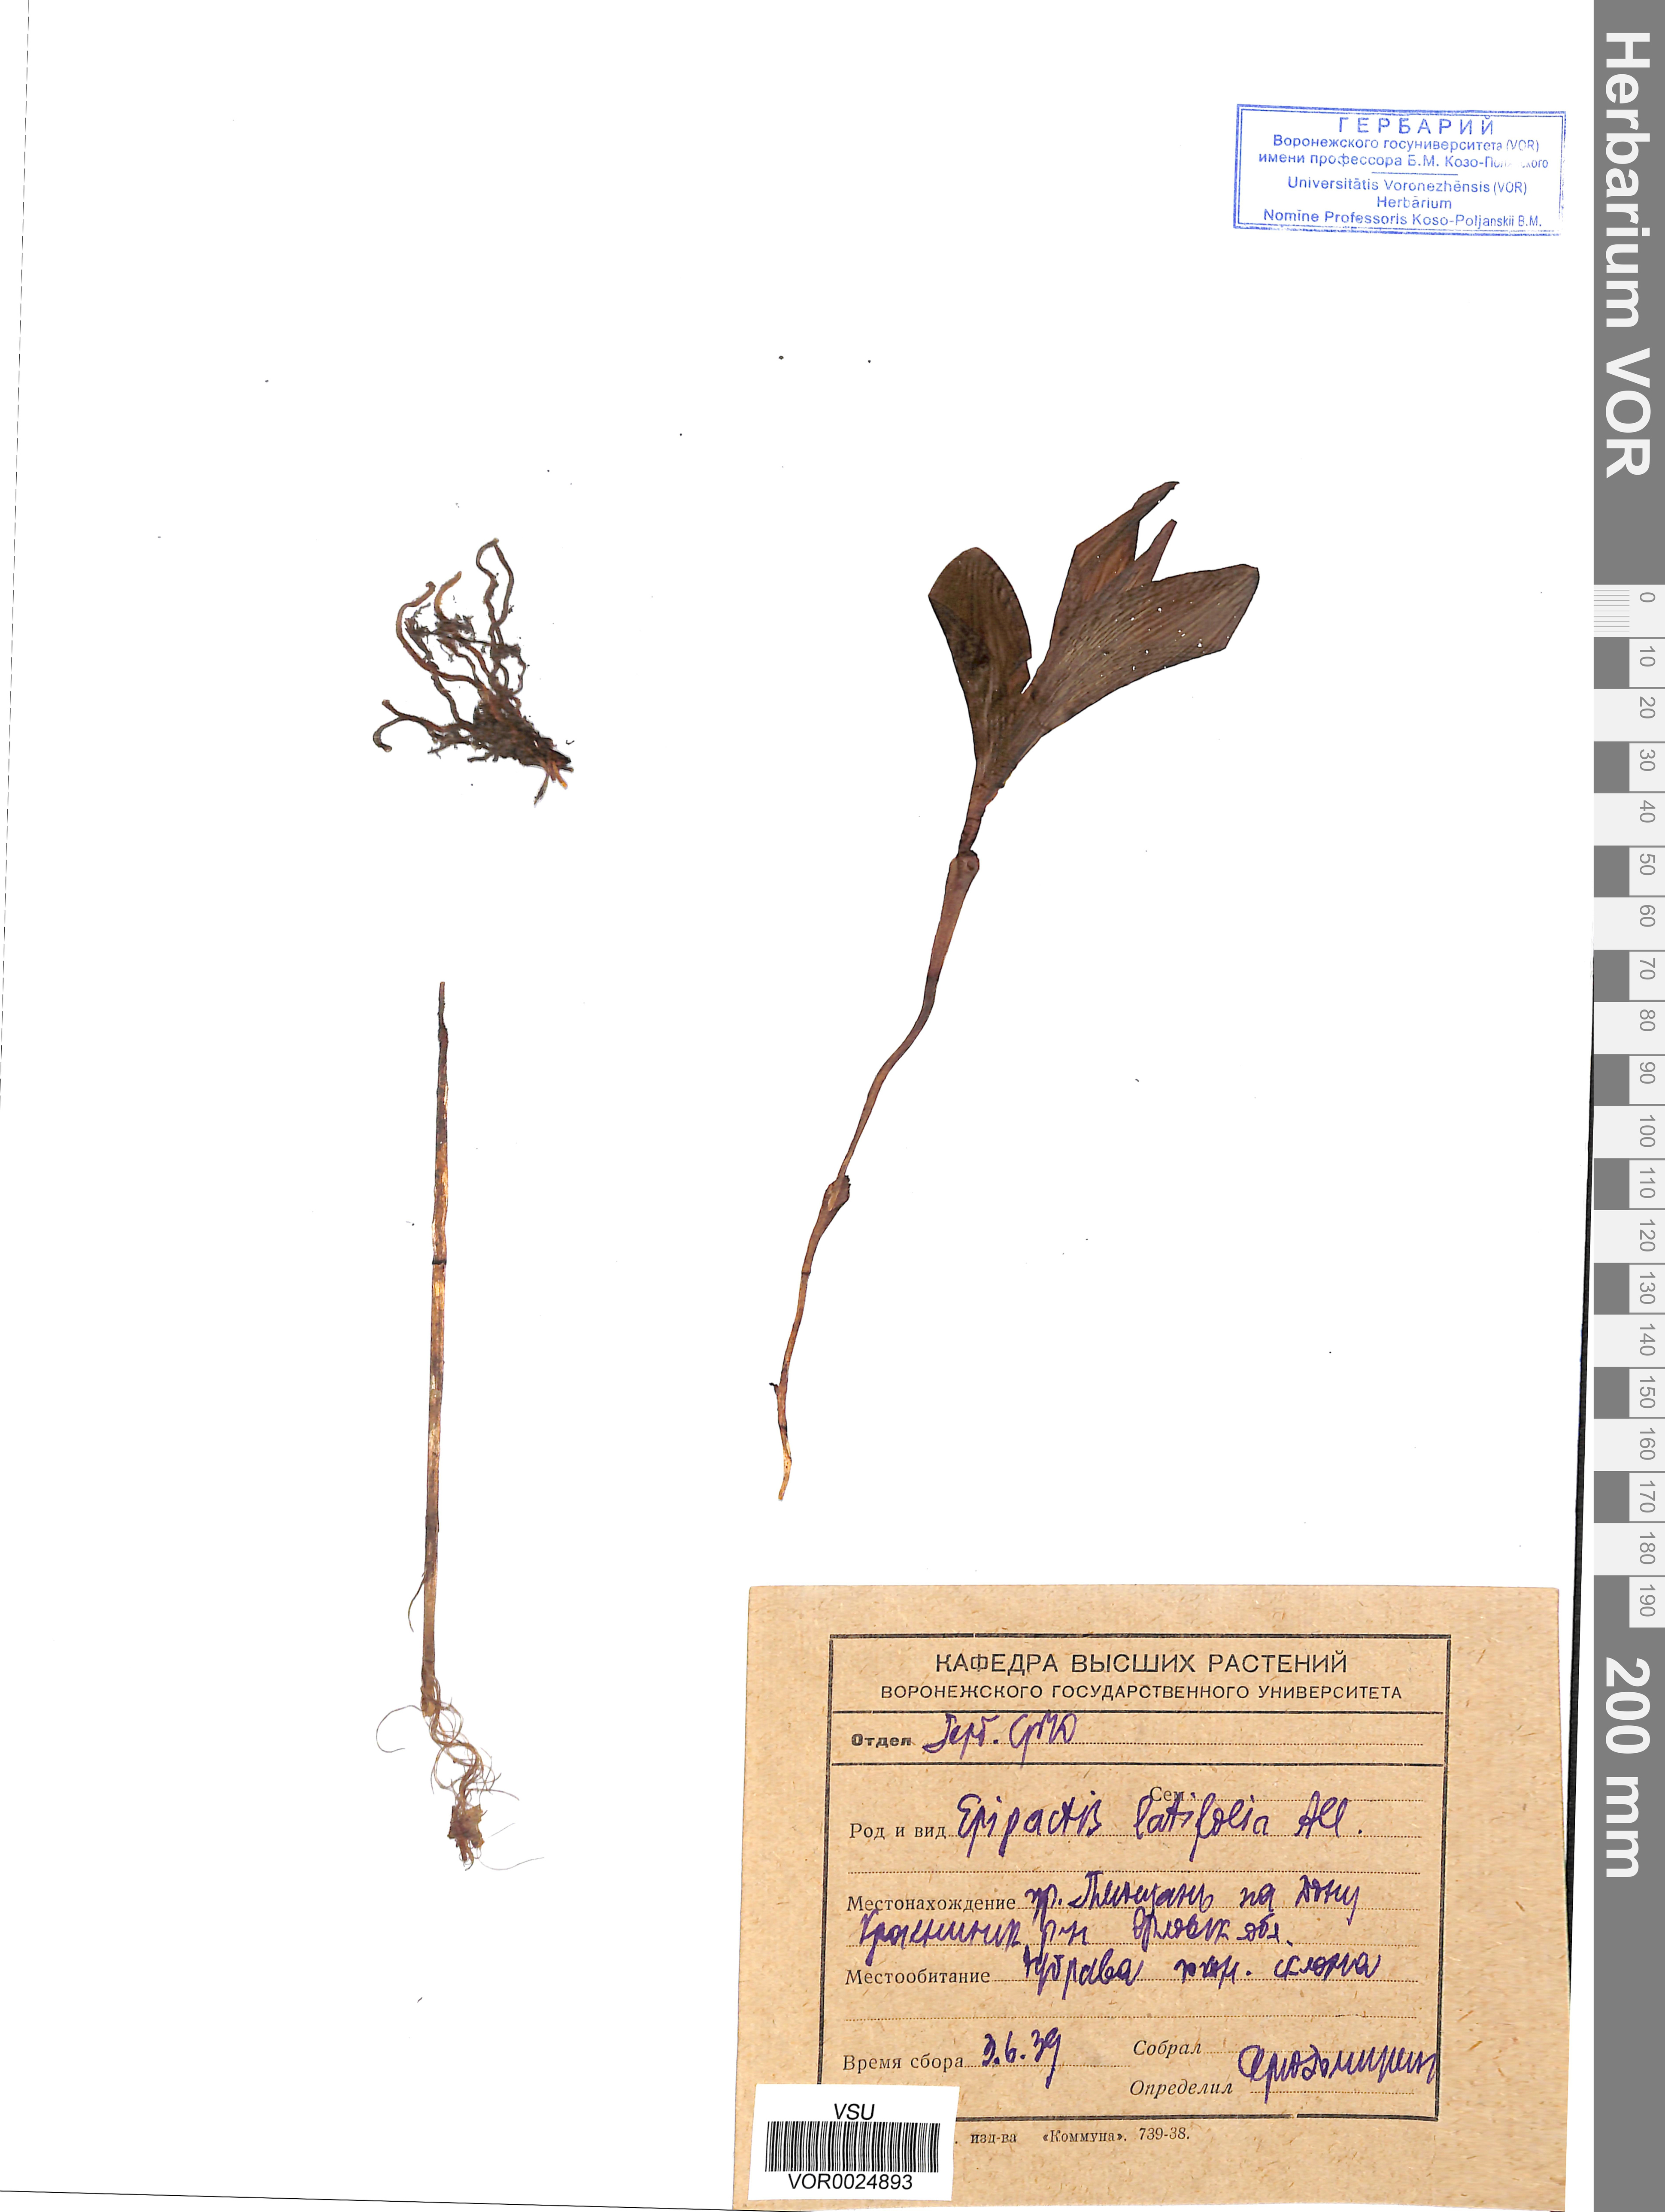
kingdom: Plantae
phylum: Tracheophyta
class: Liliopsida
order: Asparagales
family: Orchidaceae
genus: Epipactis
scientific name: Epipactis helleborine
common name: Broad-leaved helleborine
